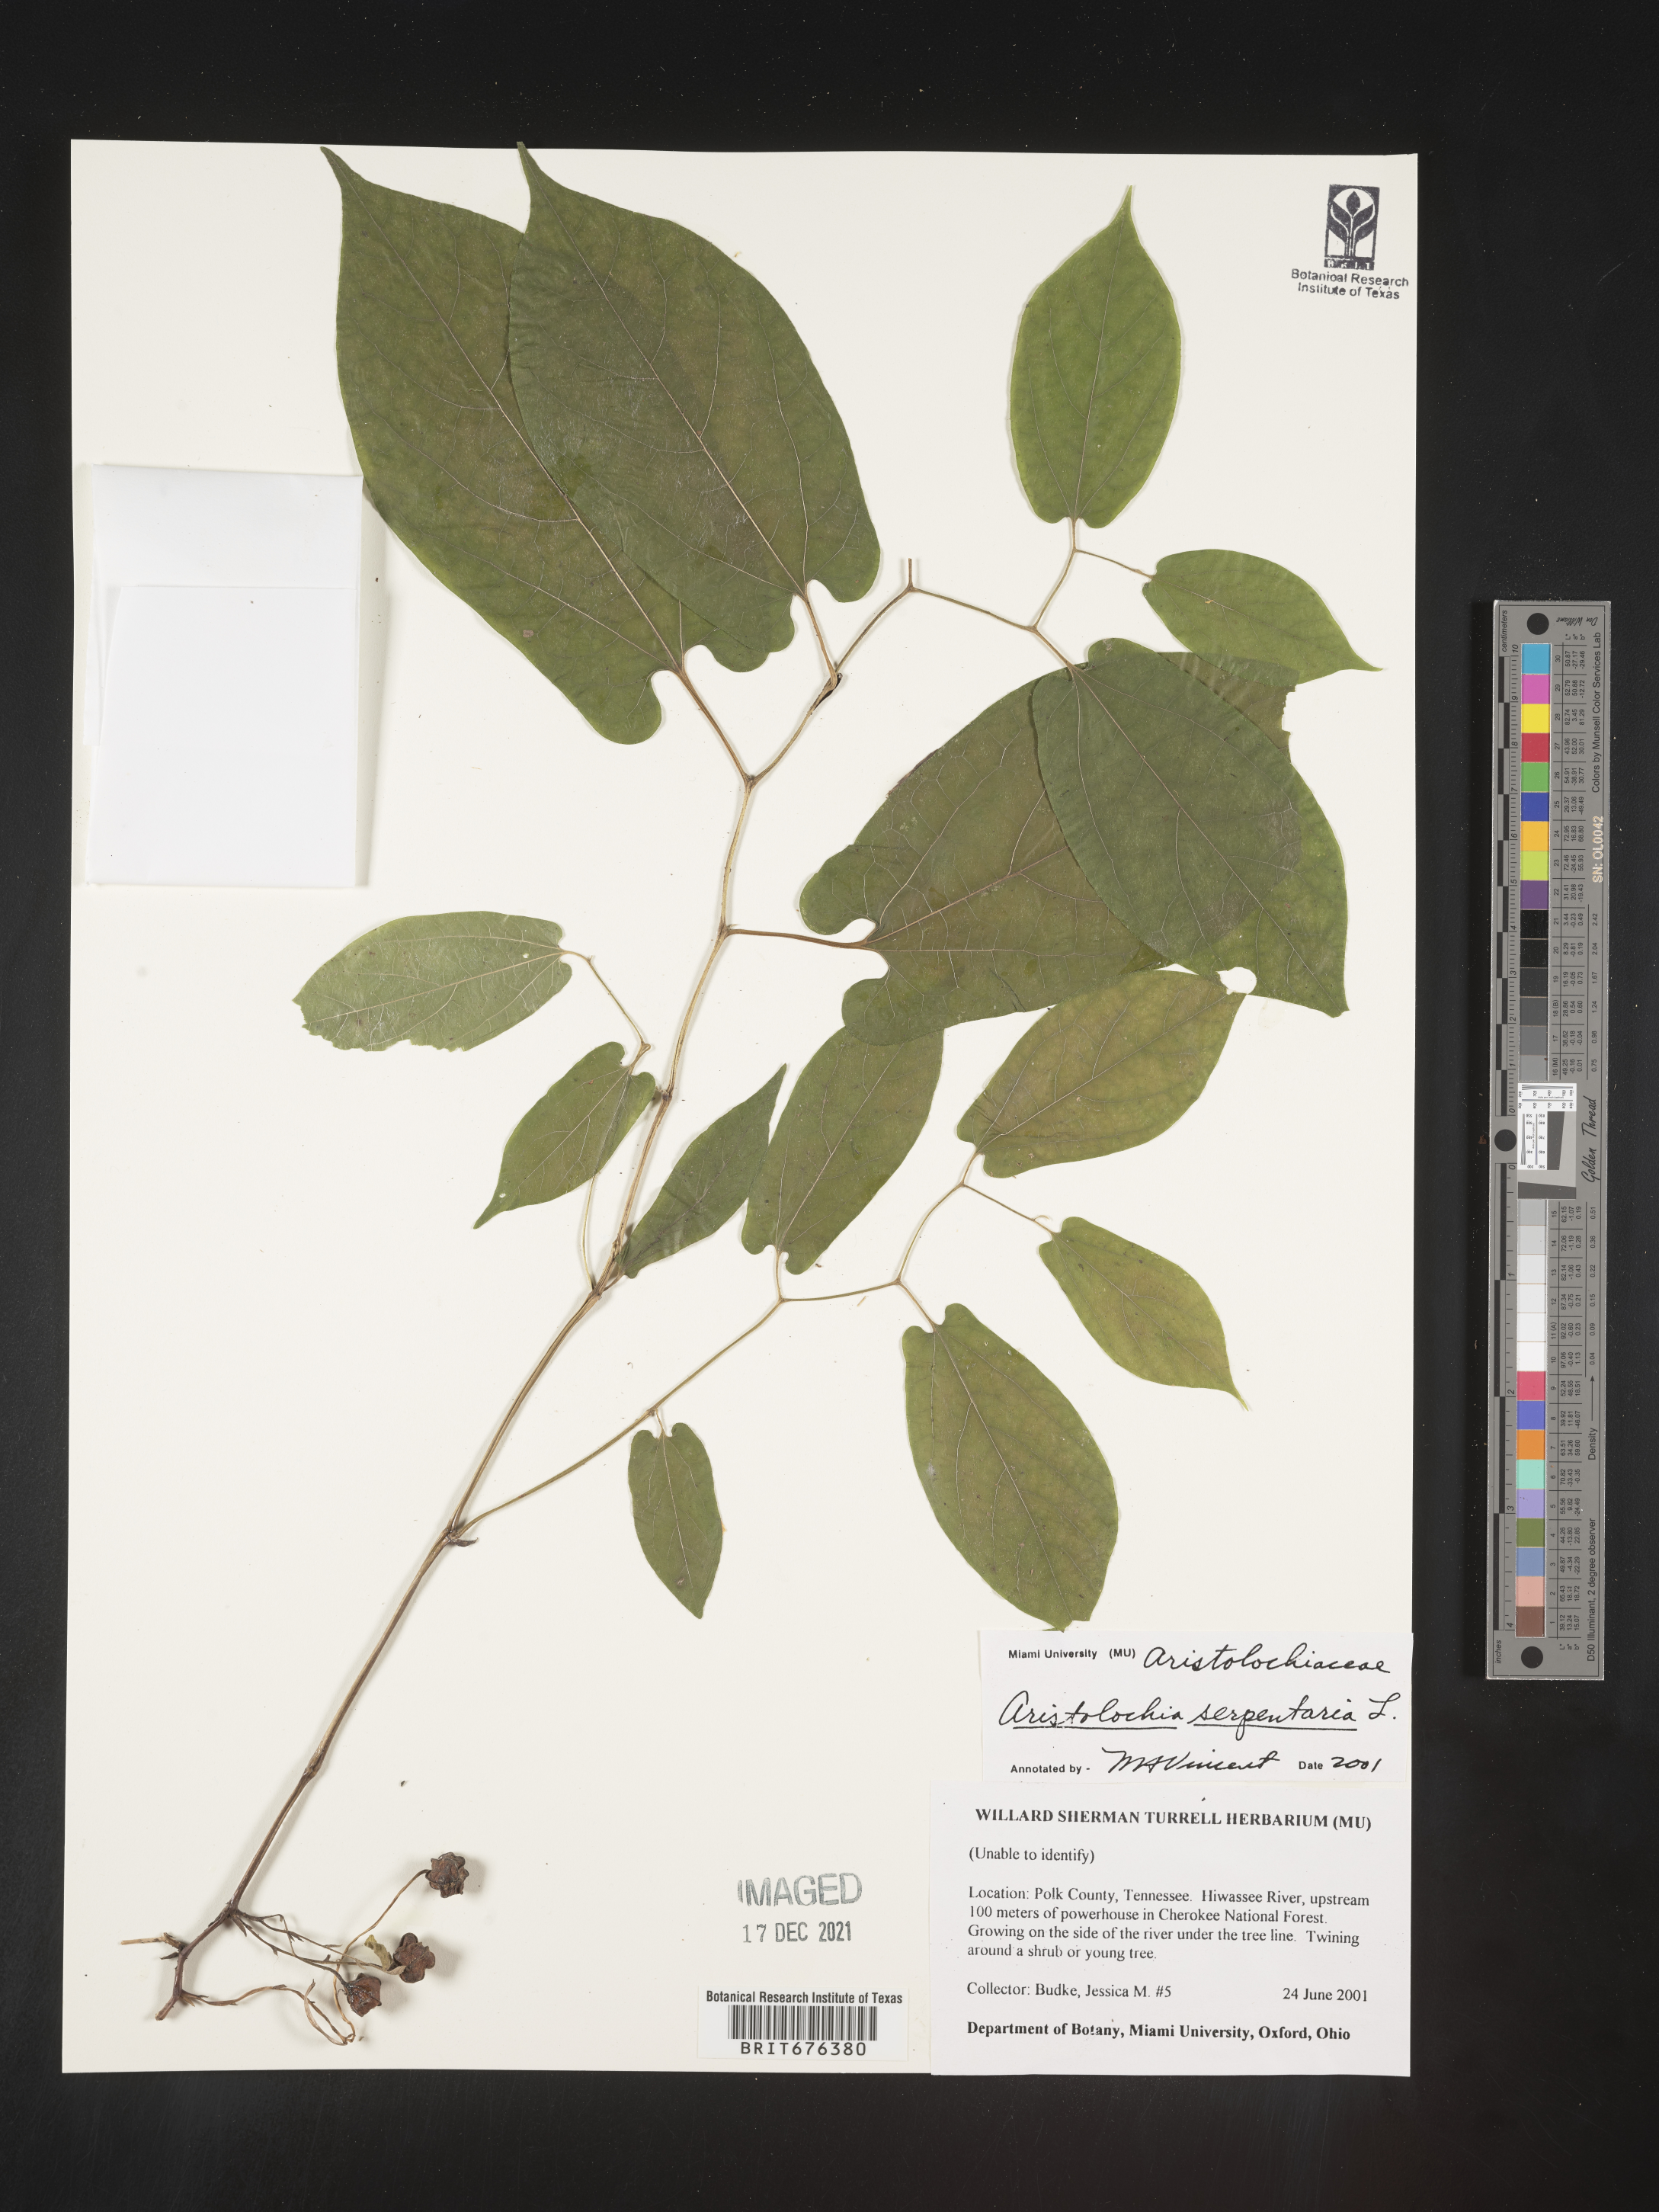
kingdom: Plantae
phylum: Tracheophyta
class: Magnoliopsida
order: Piperales
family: Aristolochiaceae
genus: Aristolochia
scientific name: Aristolochia
